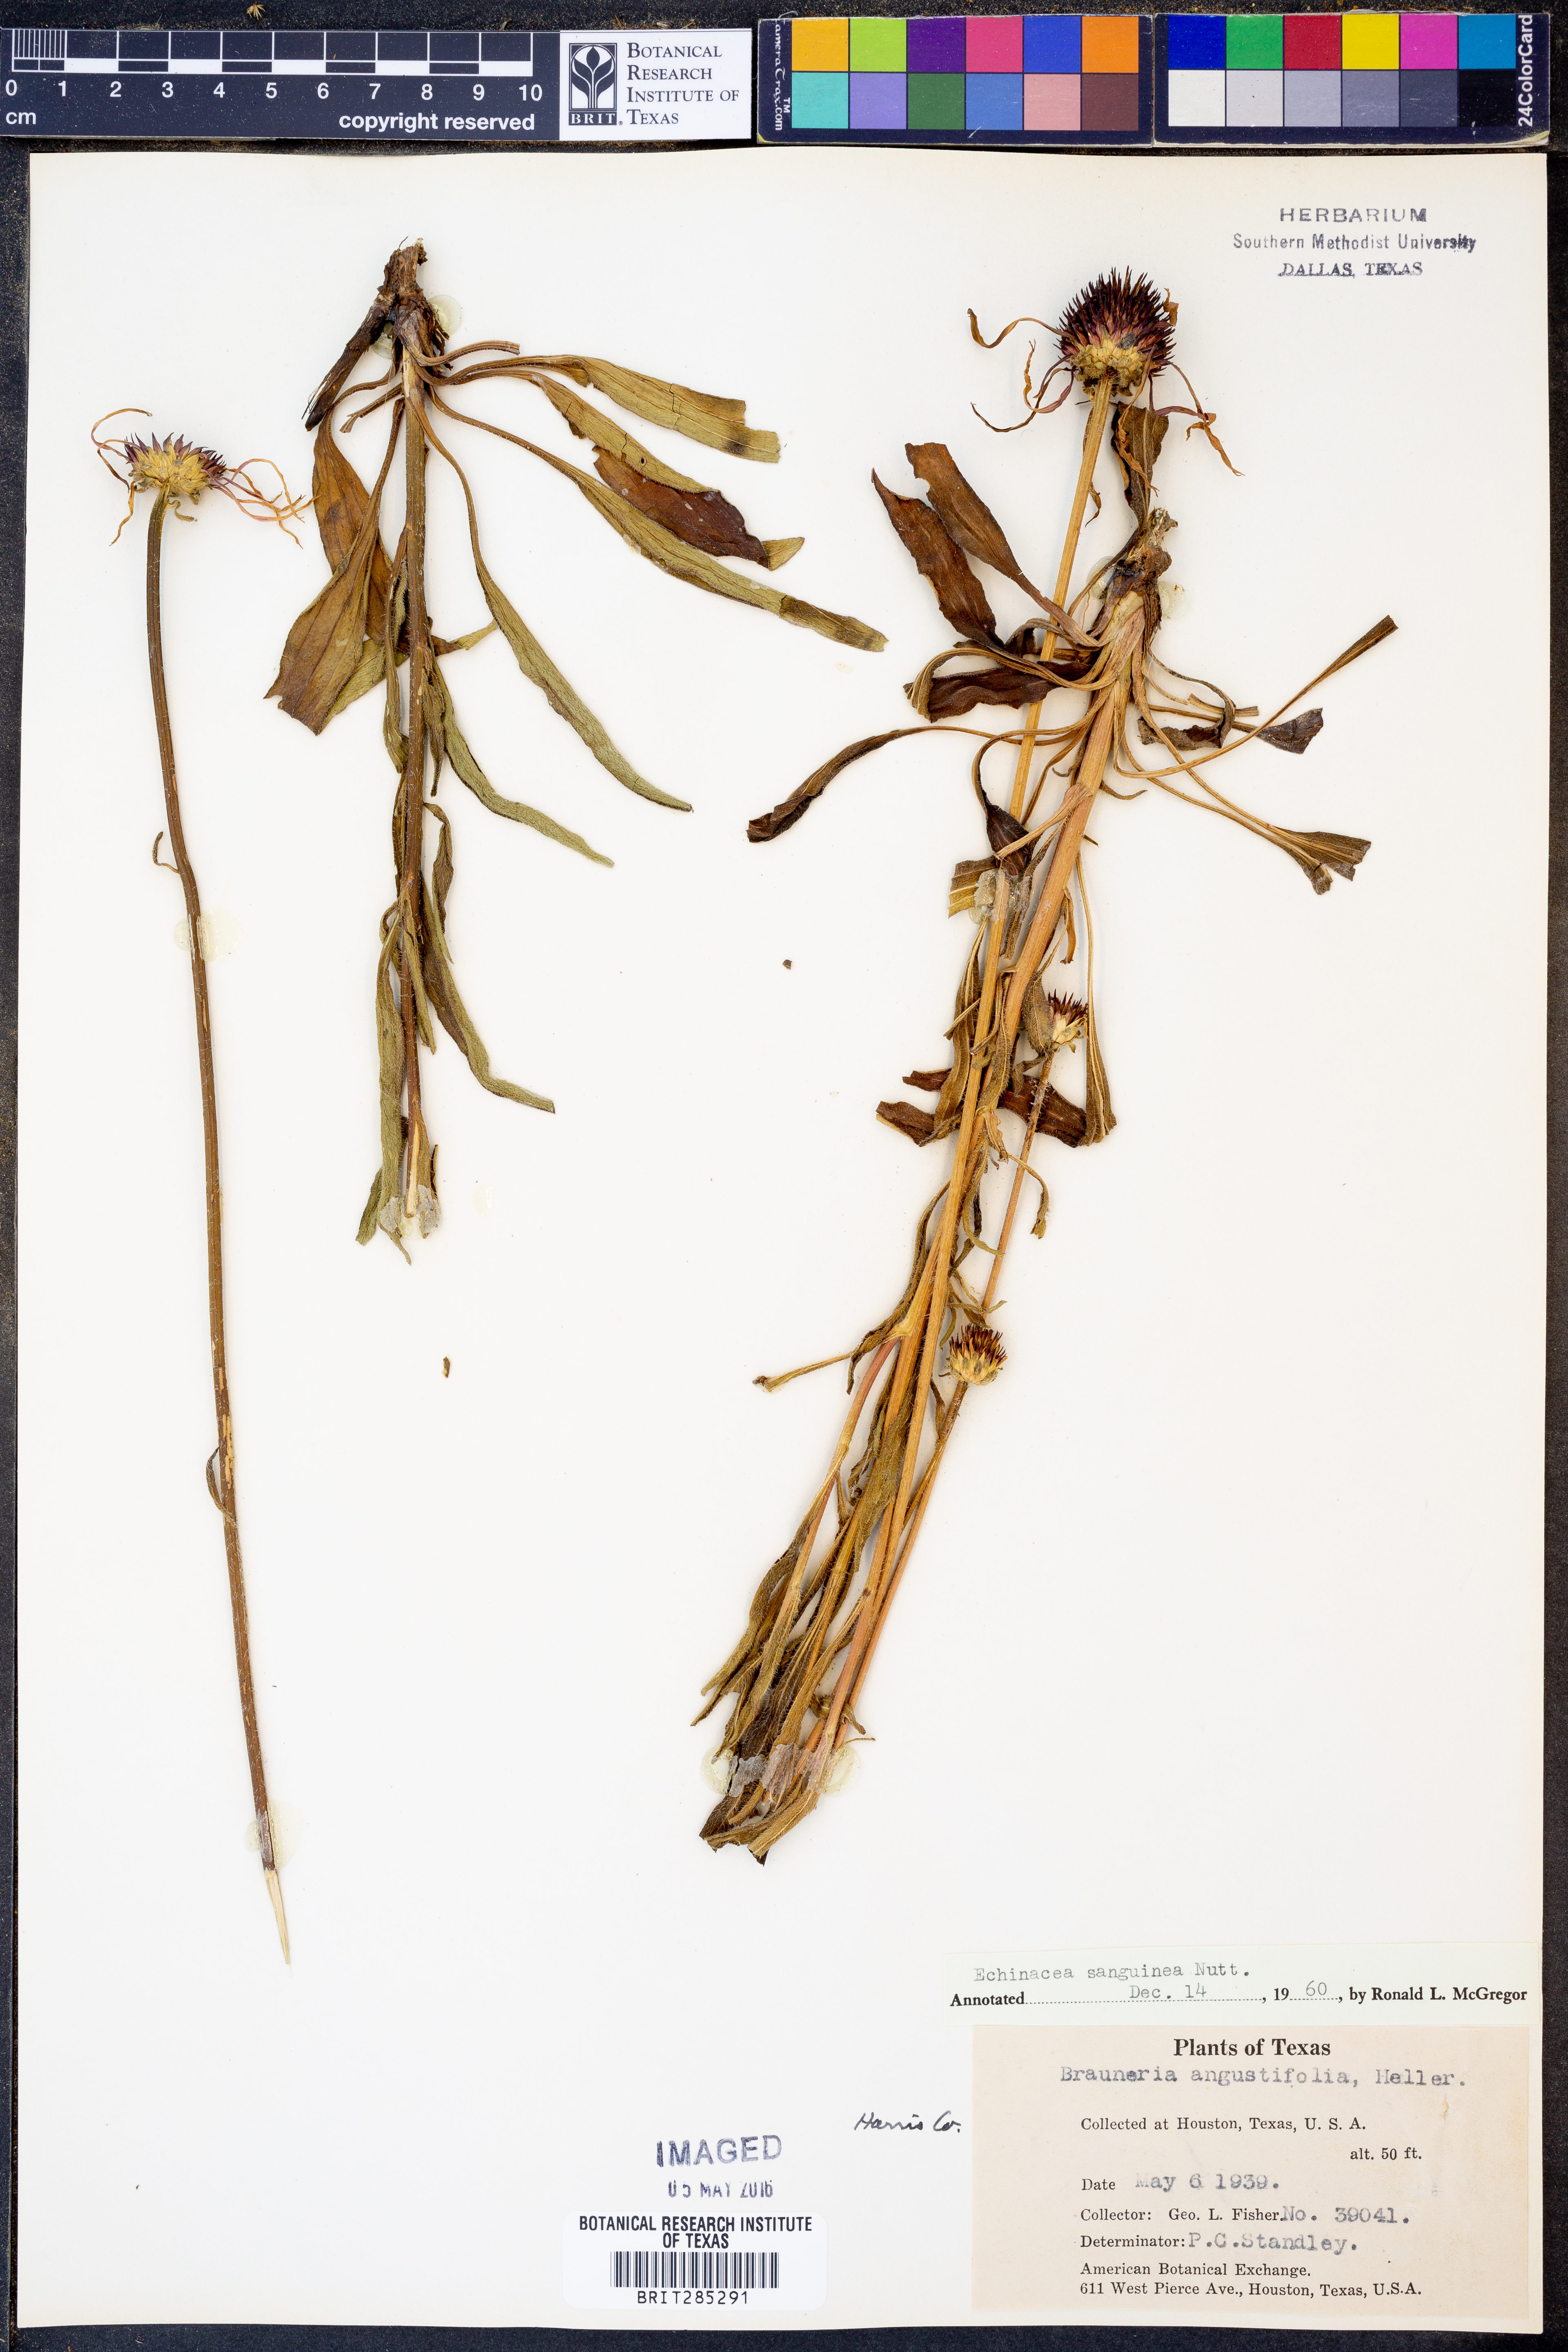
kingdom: Plantae
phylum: Tracheophyta
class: Magnoliopsida
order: Asterales
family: Asteraceae
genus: Echinacea
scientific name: Echinacea sanguinea
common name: Sanguine purple-coneflower
